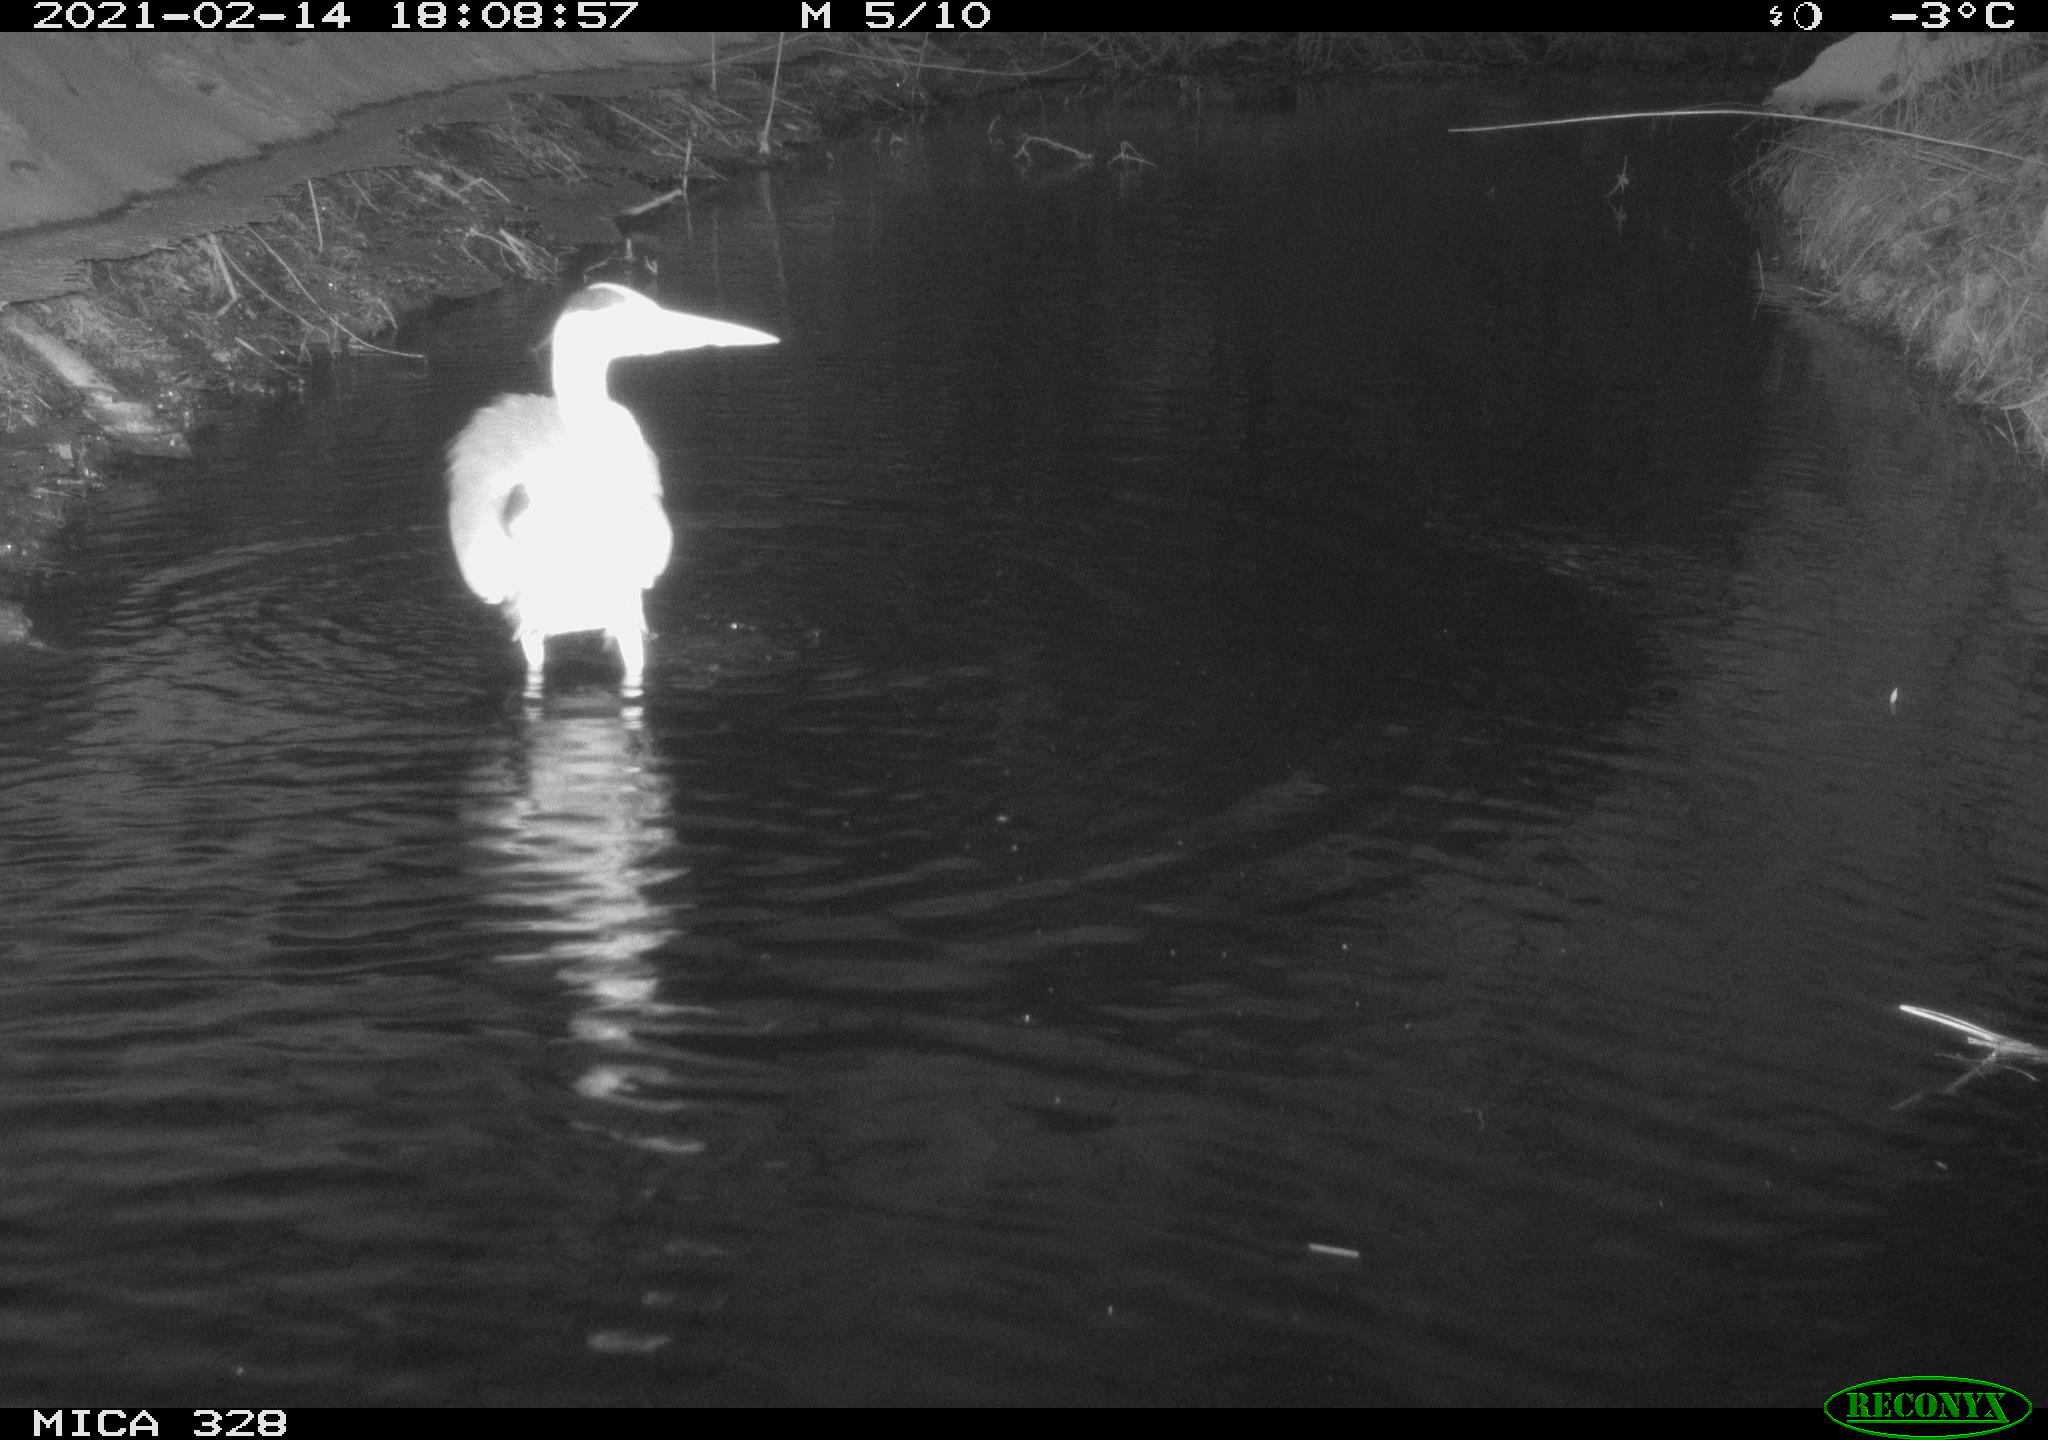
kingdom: Animalia
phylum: Chordata
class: Aves
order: Pelecaniformes
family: Ardeidae
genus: Ardea
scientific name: Ardea cinerea
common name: Grey heron
